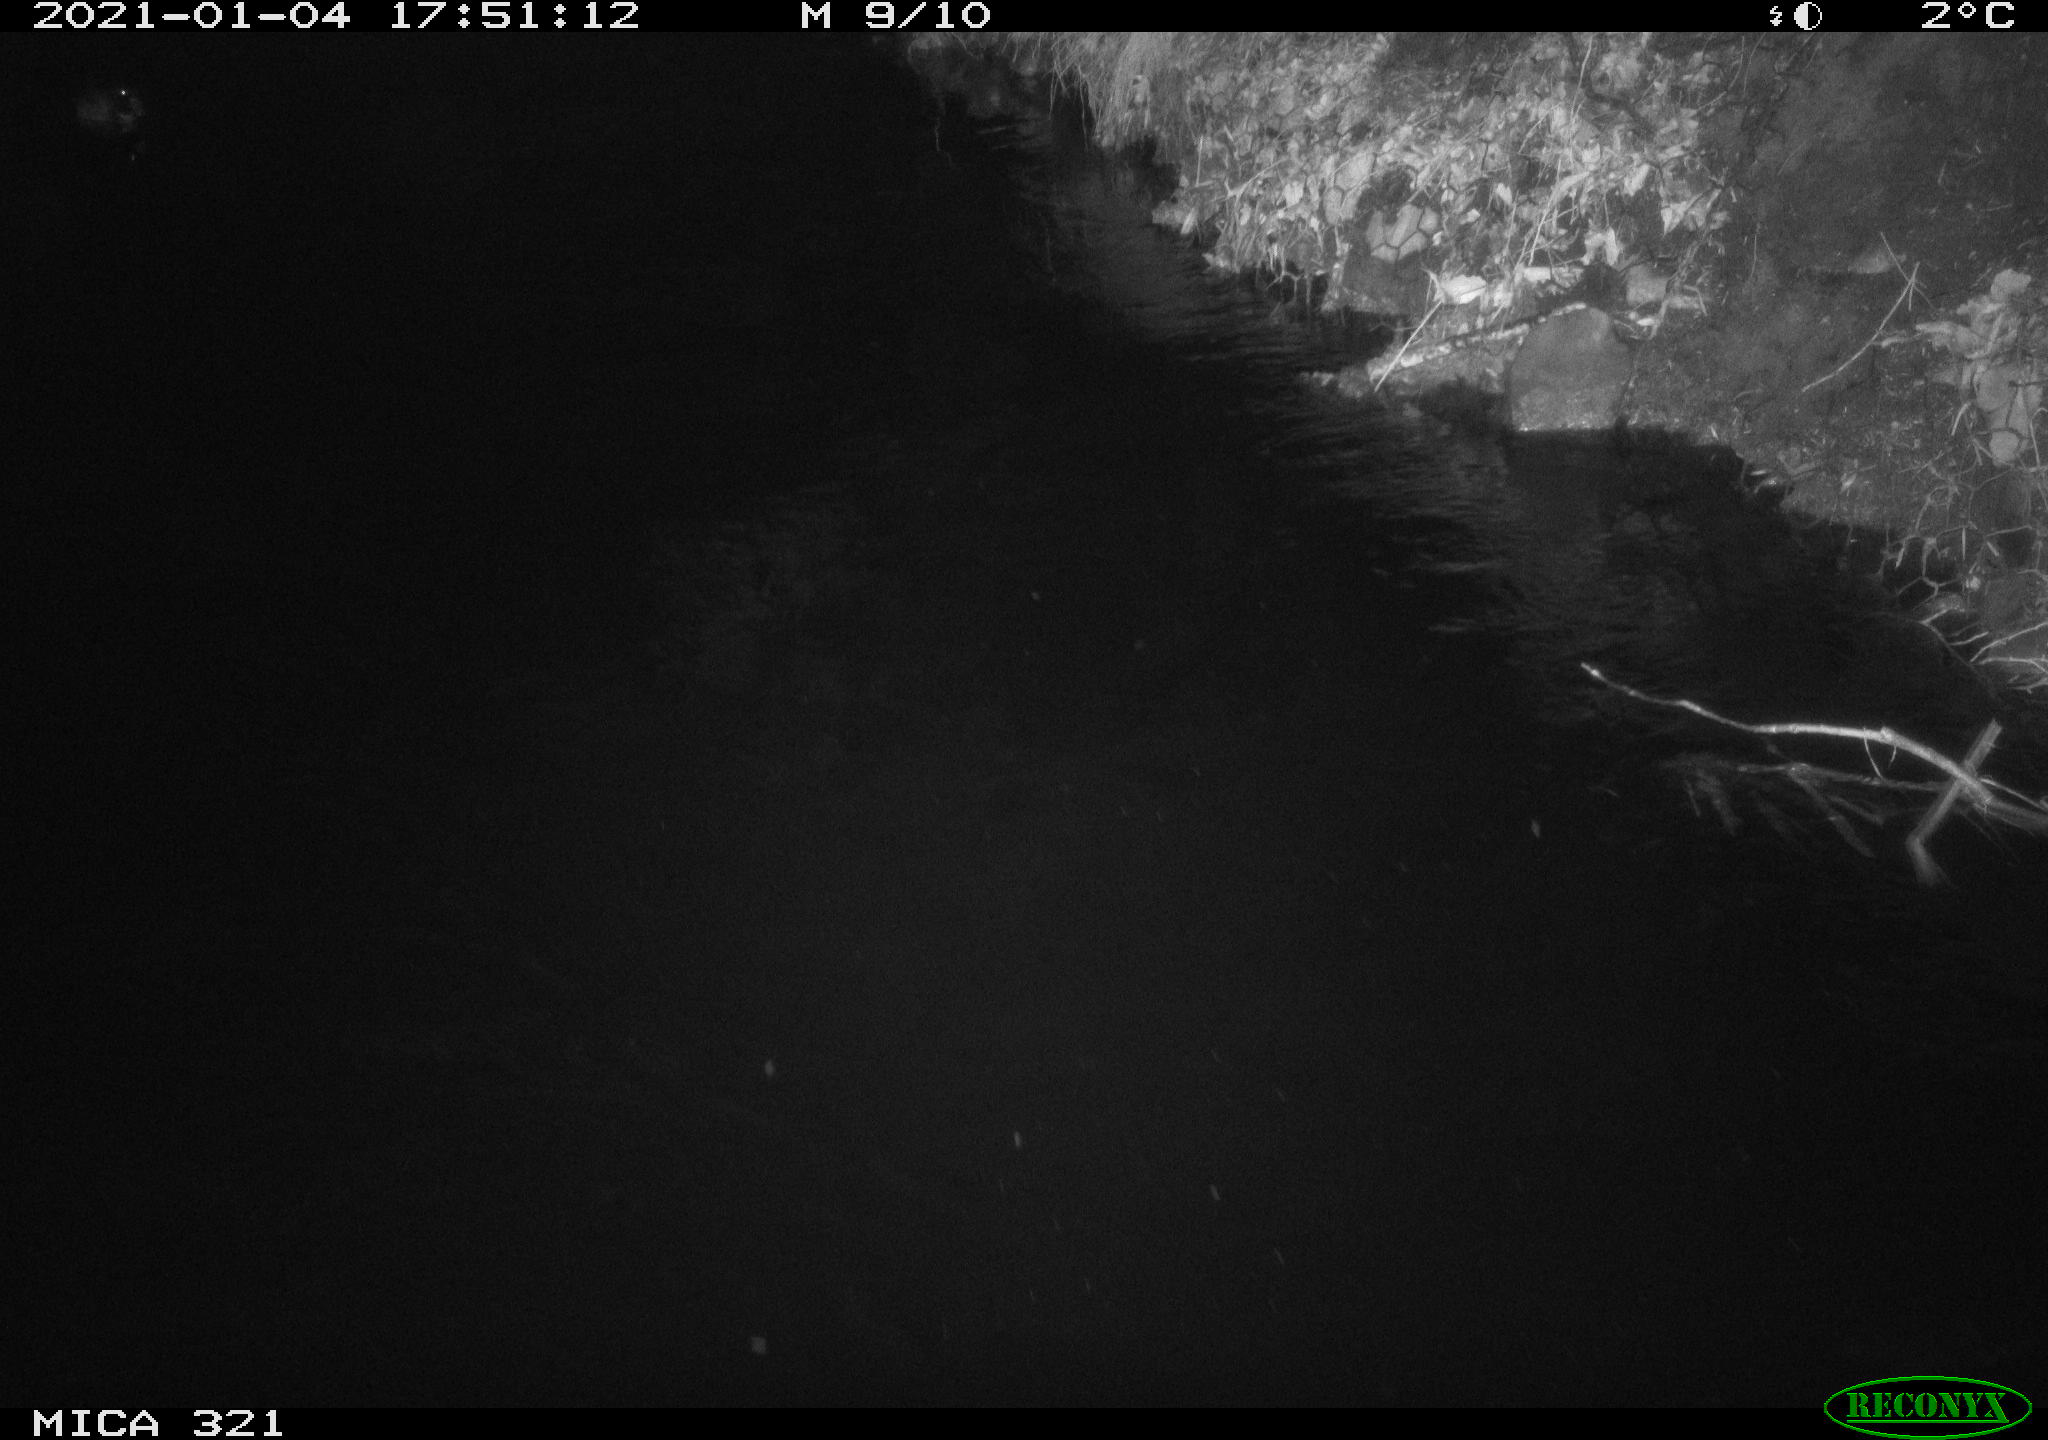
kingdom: Animalia
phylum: Chordata
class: Aves
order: Anseriformes
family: Anatidae
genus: Anas
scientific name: Anas platyrhynchos
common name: Mallard
